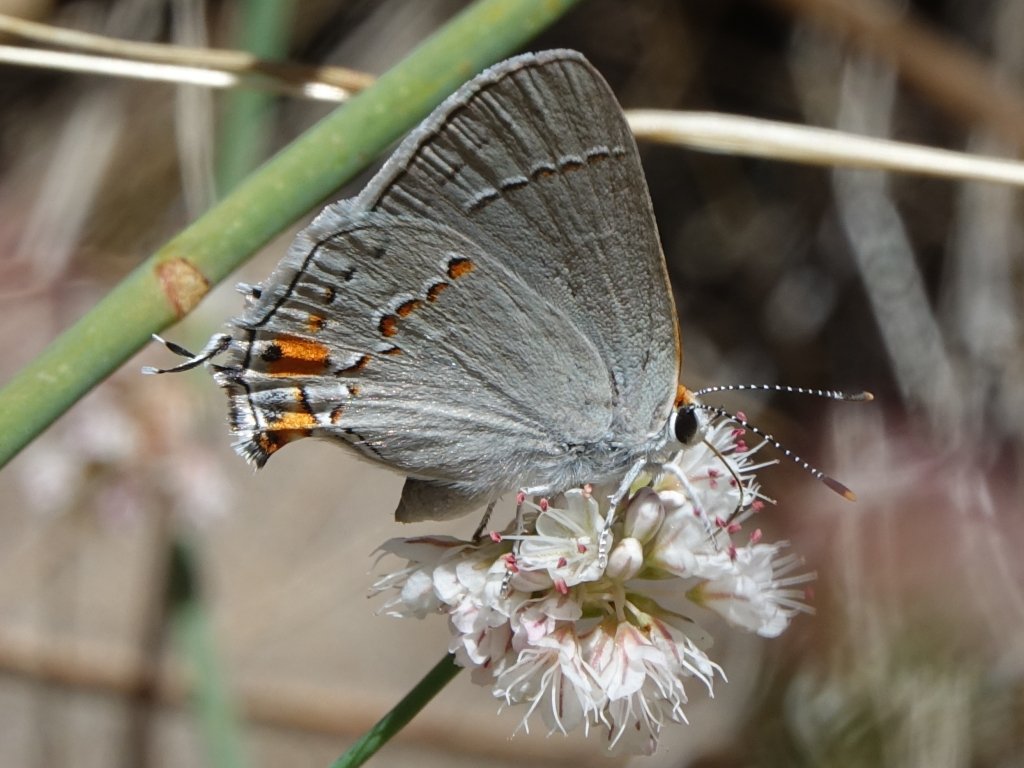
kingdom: Animalia
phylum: Arthropoda
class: Insecta
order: Lepidoptera
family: Lycaenidae
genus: Strymon
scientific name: Strymon melinus
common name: Gray Hairstreak
